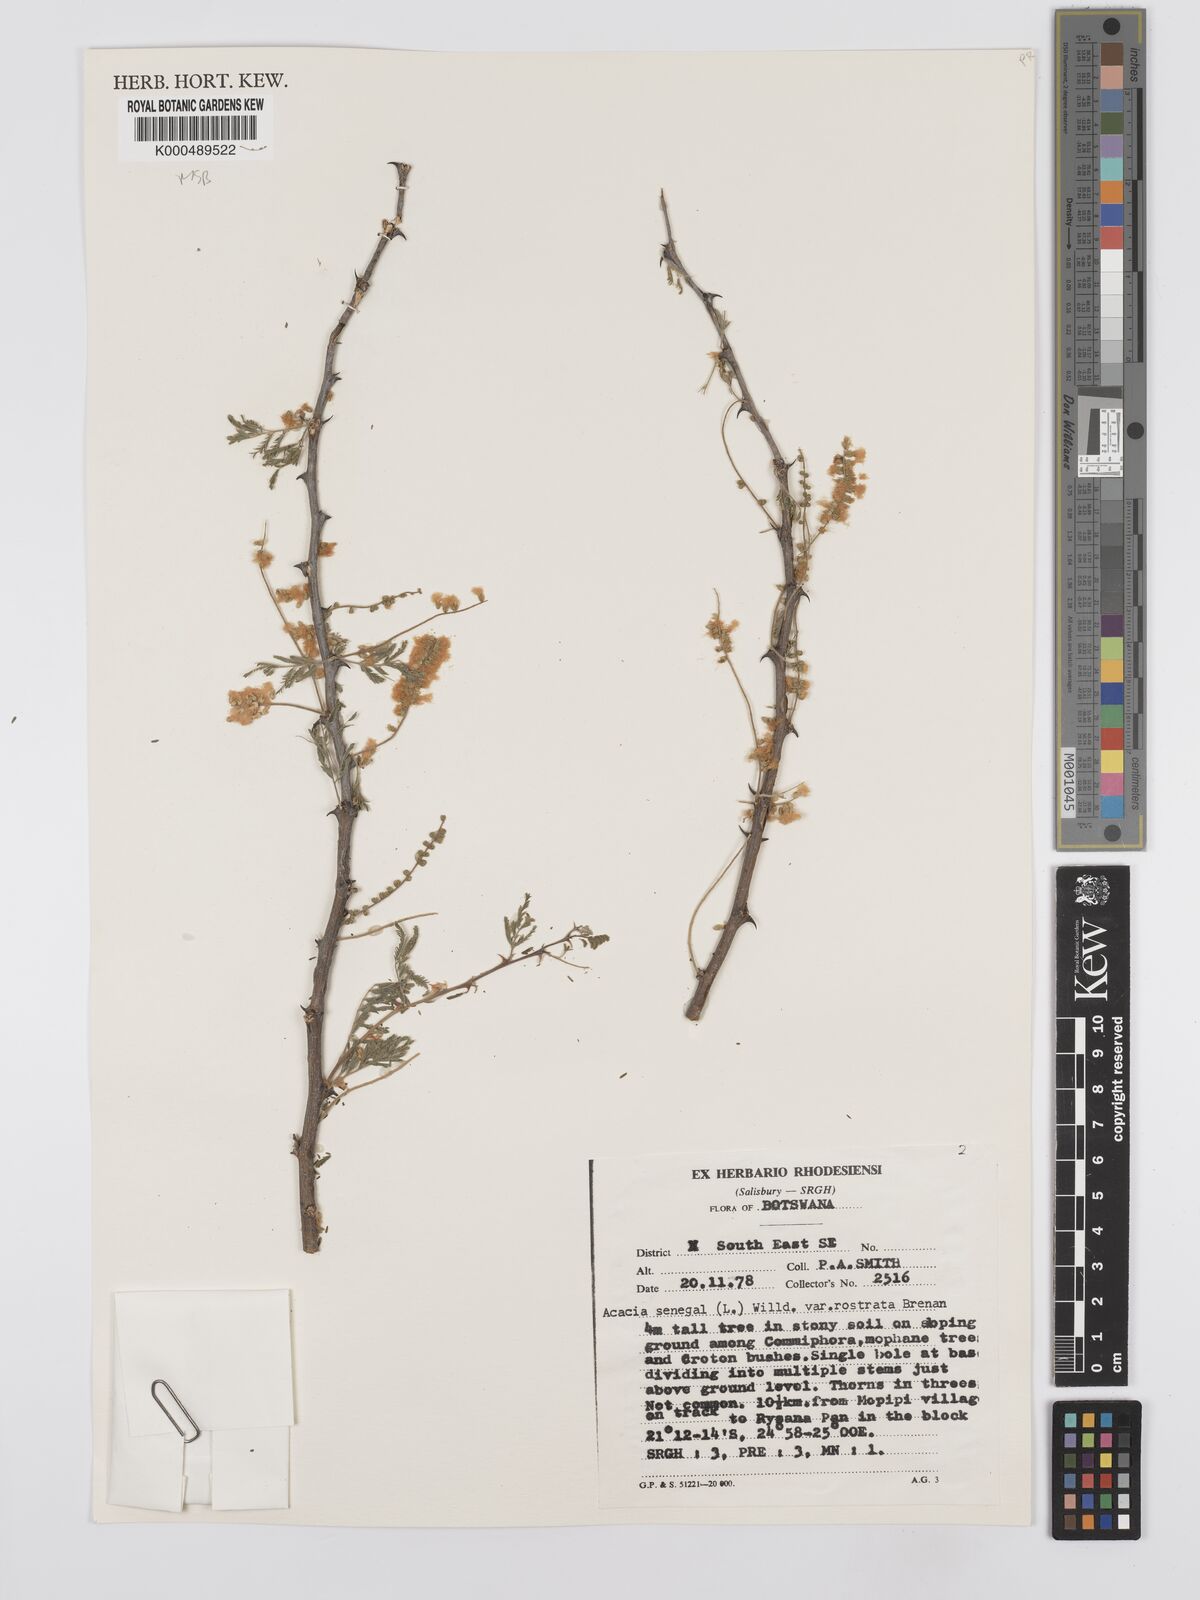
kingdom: Plantae
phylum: Tracheophyta
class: Magnoliopsida
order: Fabales
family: Fabaceae
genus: Senegalia
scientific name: Senegalia senegal
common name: Senegal-gum
